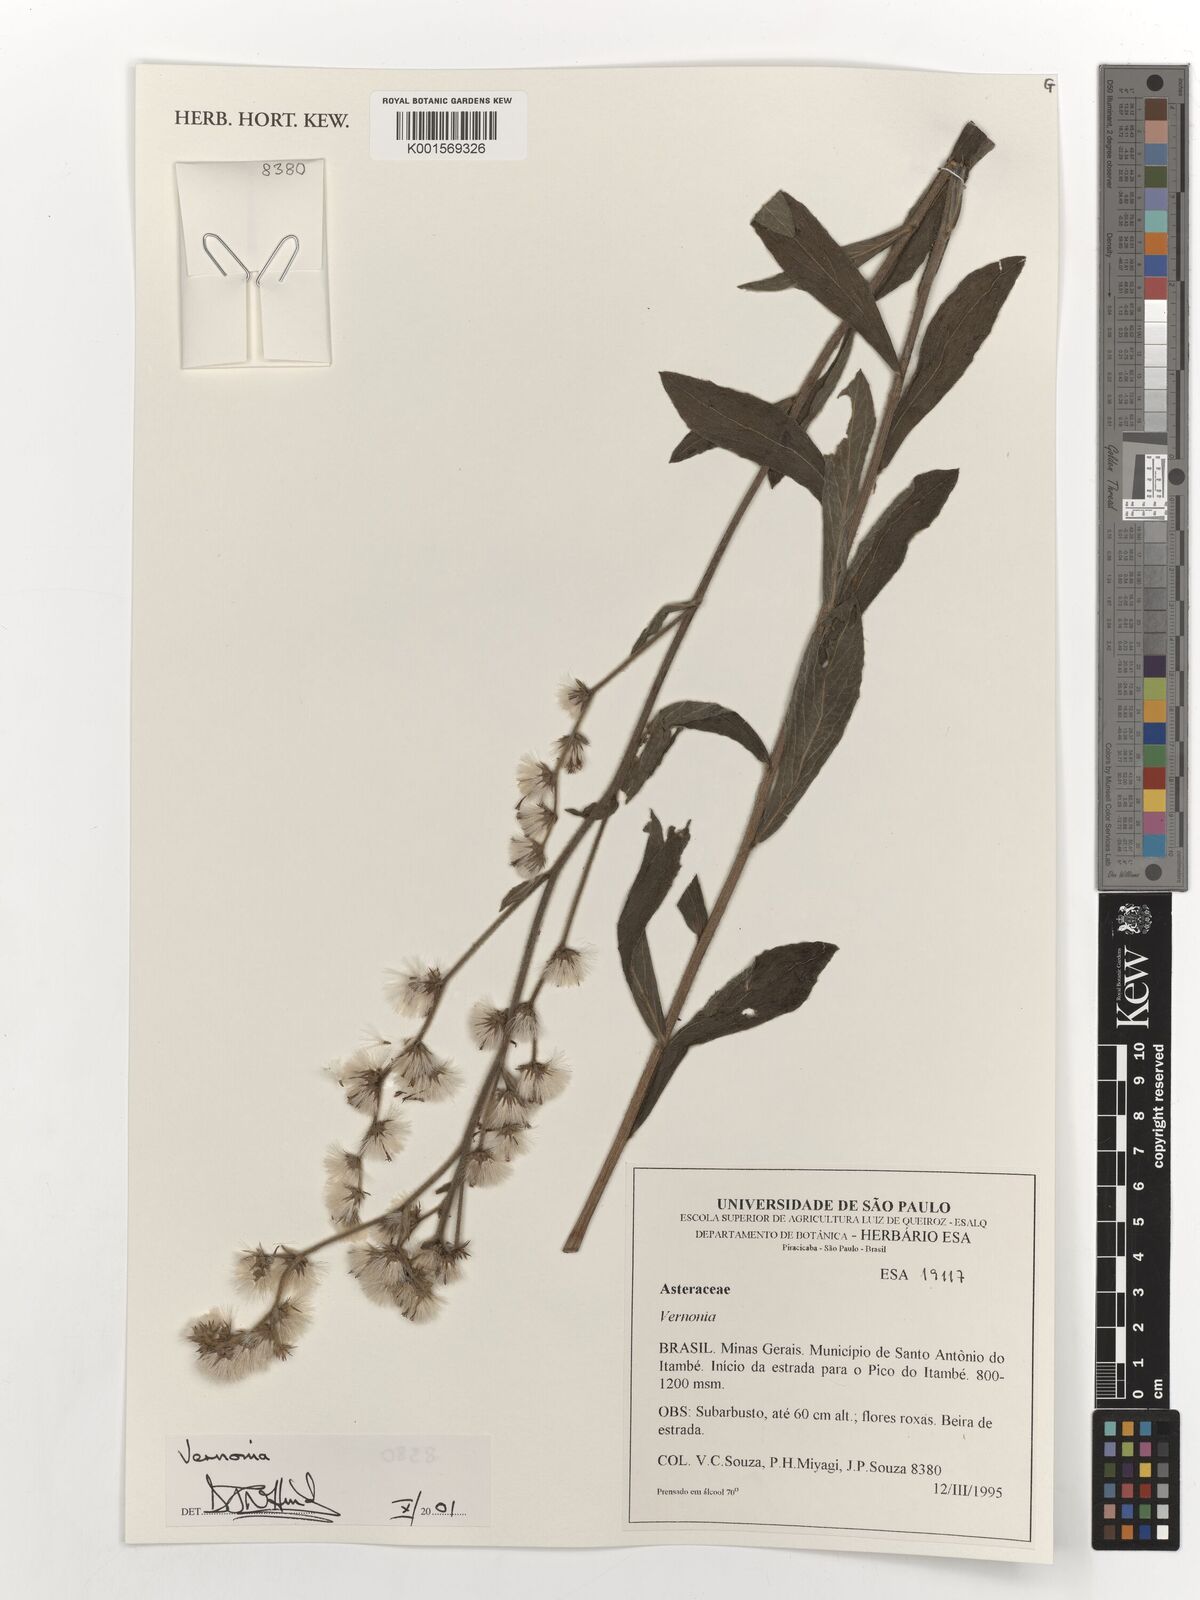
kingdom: Plantae
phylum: Tracheophyta
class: Magnoliopsida
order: Asterales
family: Asteraceae
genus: Vernonia
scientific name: Vernonia
